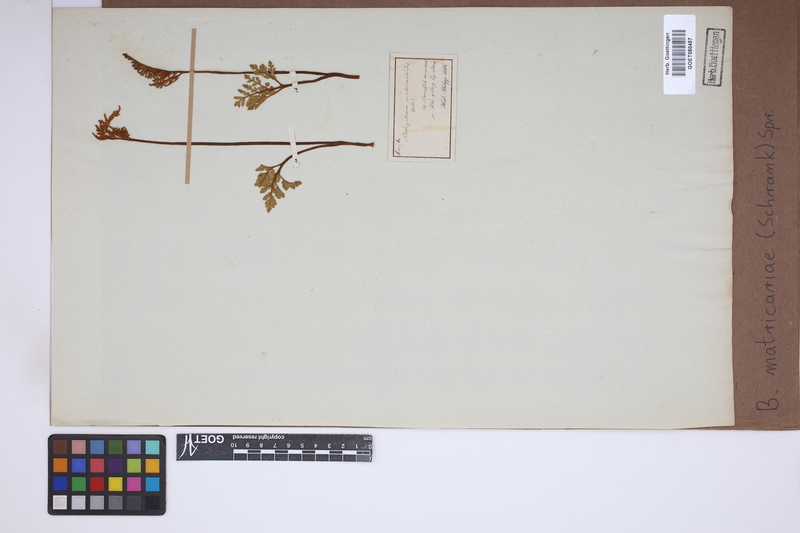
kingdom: Plantae
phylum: Tracheophyta
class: Polypodiopsida
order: Ophioglossales
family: Ophioglossaceae
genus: Sceptridium
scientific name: Sceptridium multifidum
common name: Leathery grape fern
